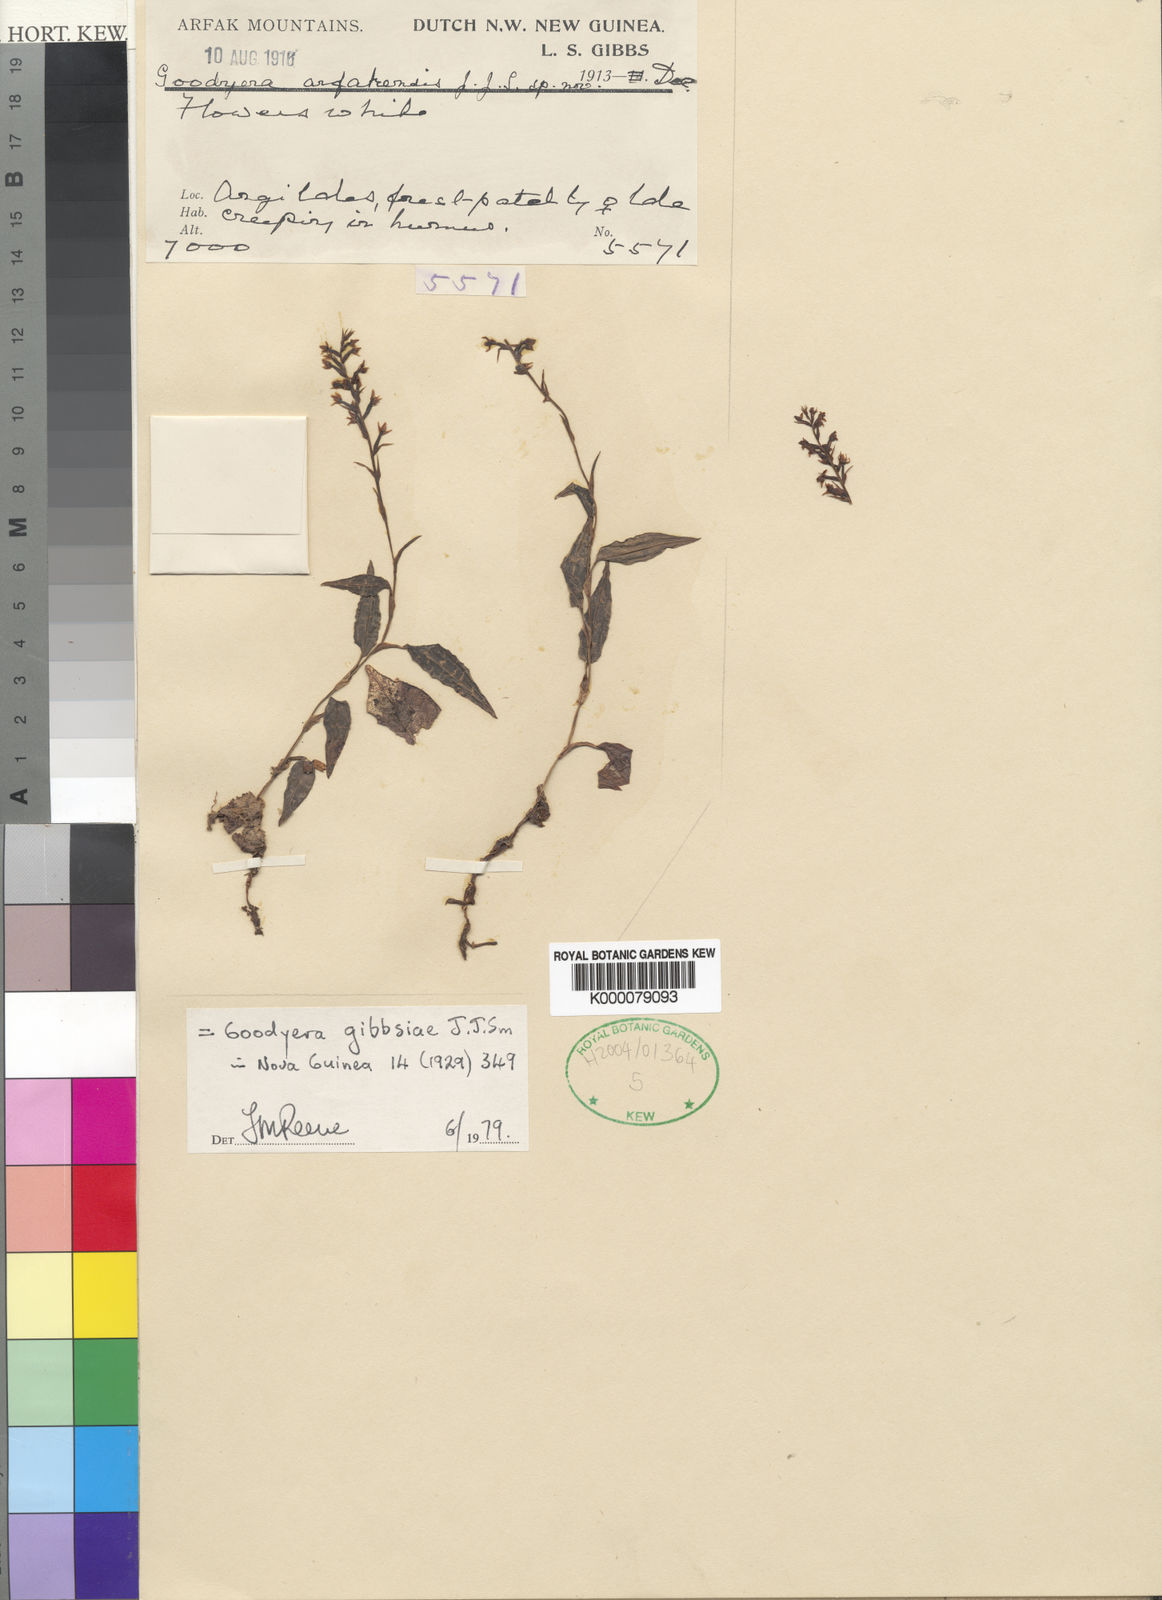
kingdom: Plantae
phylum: Tracheophyta
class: Liliopsida
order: Asparagales
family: Orchidaceae
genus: Goodyera
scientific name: Goodyera gibbsiae
